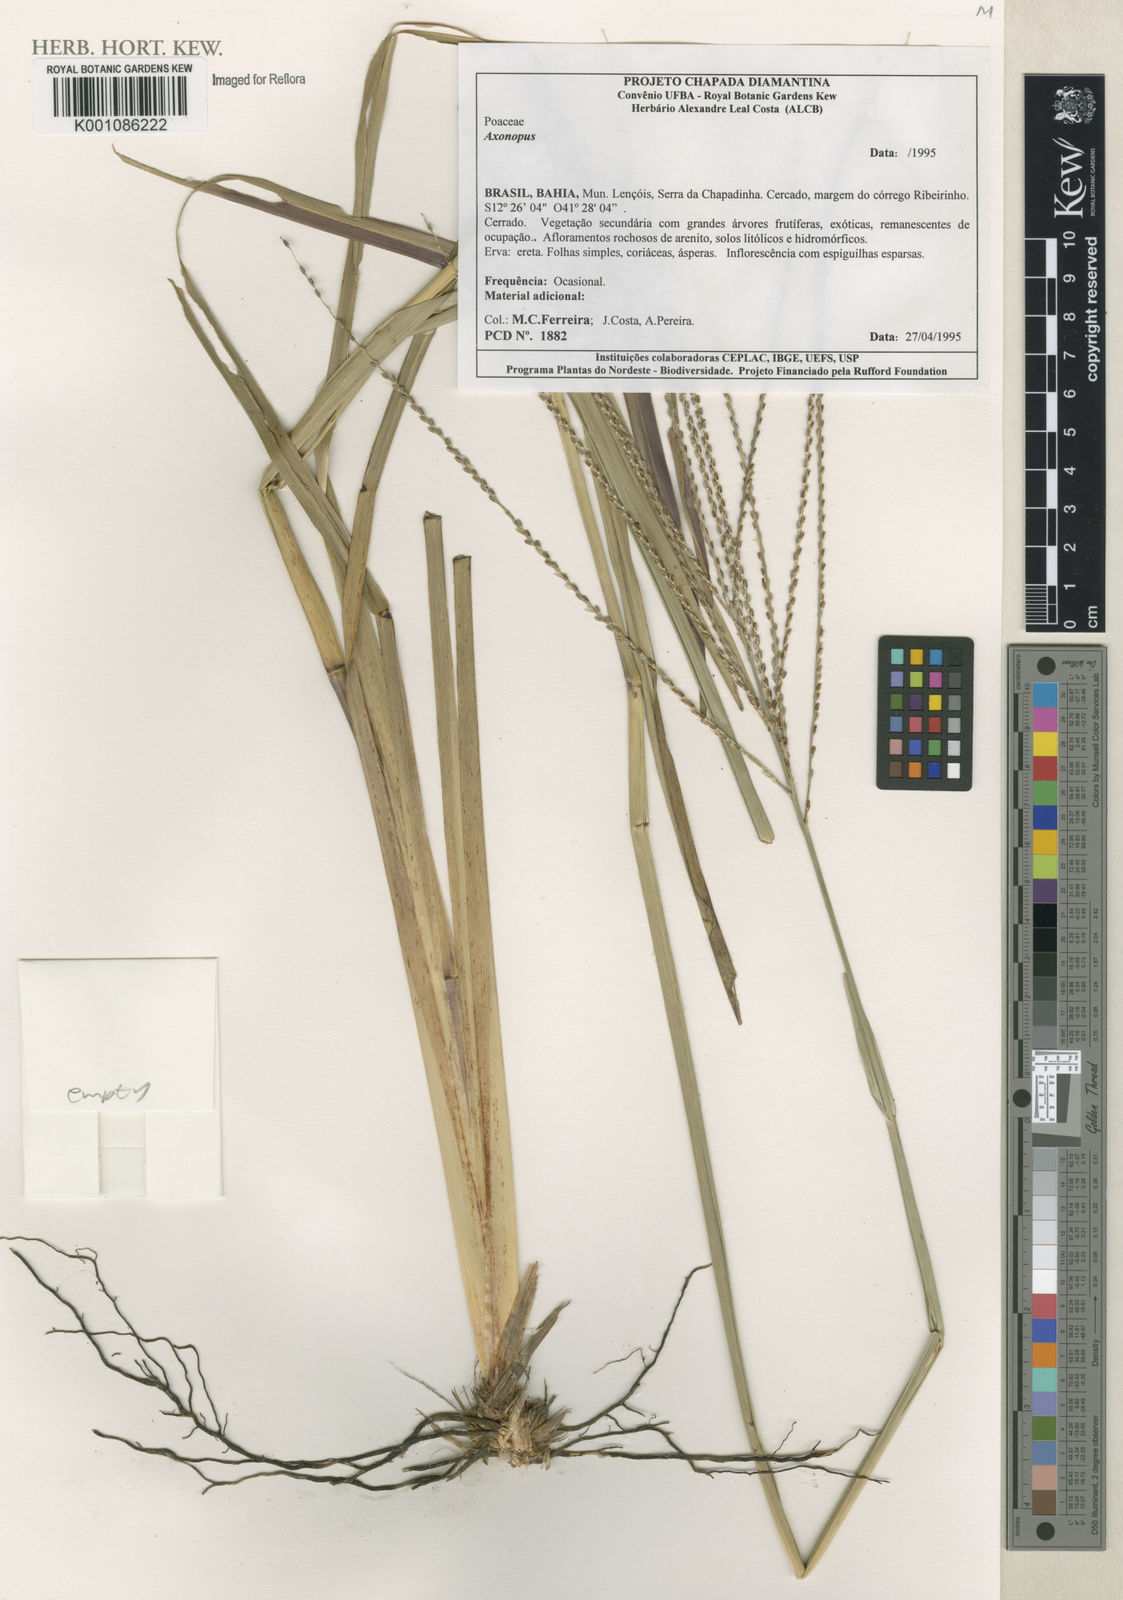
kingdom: Plantae
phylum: Tracheophyta
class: Liliopsida
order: Poales
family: Poaceae
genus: Axonopus
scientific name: Axonopus
